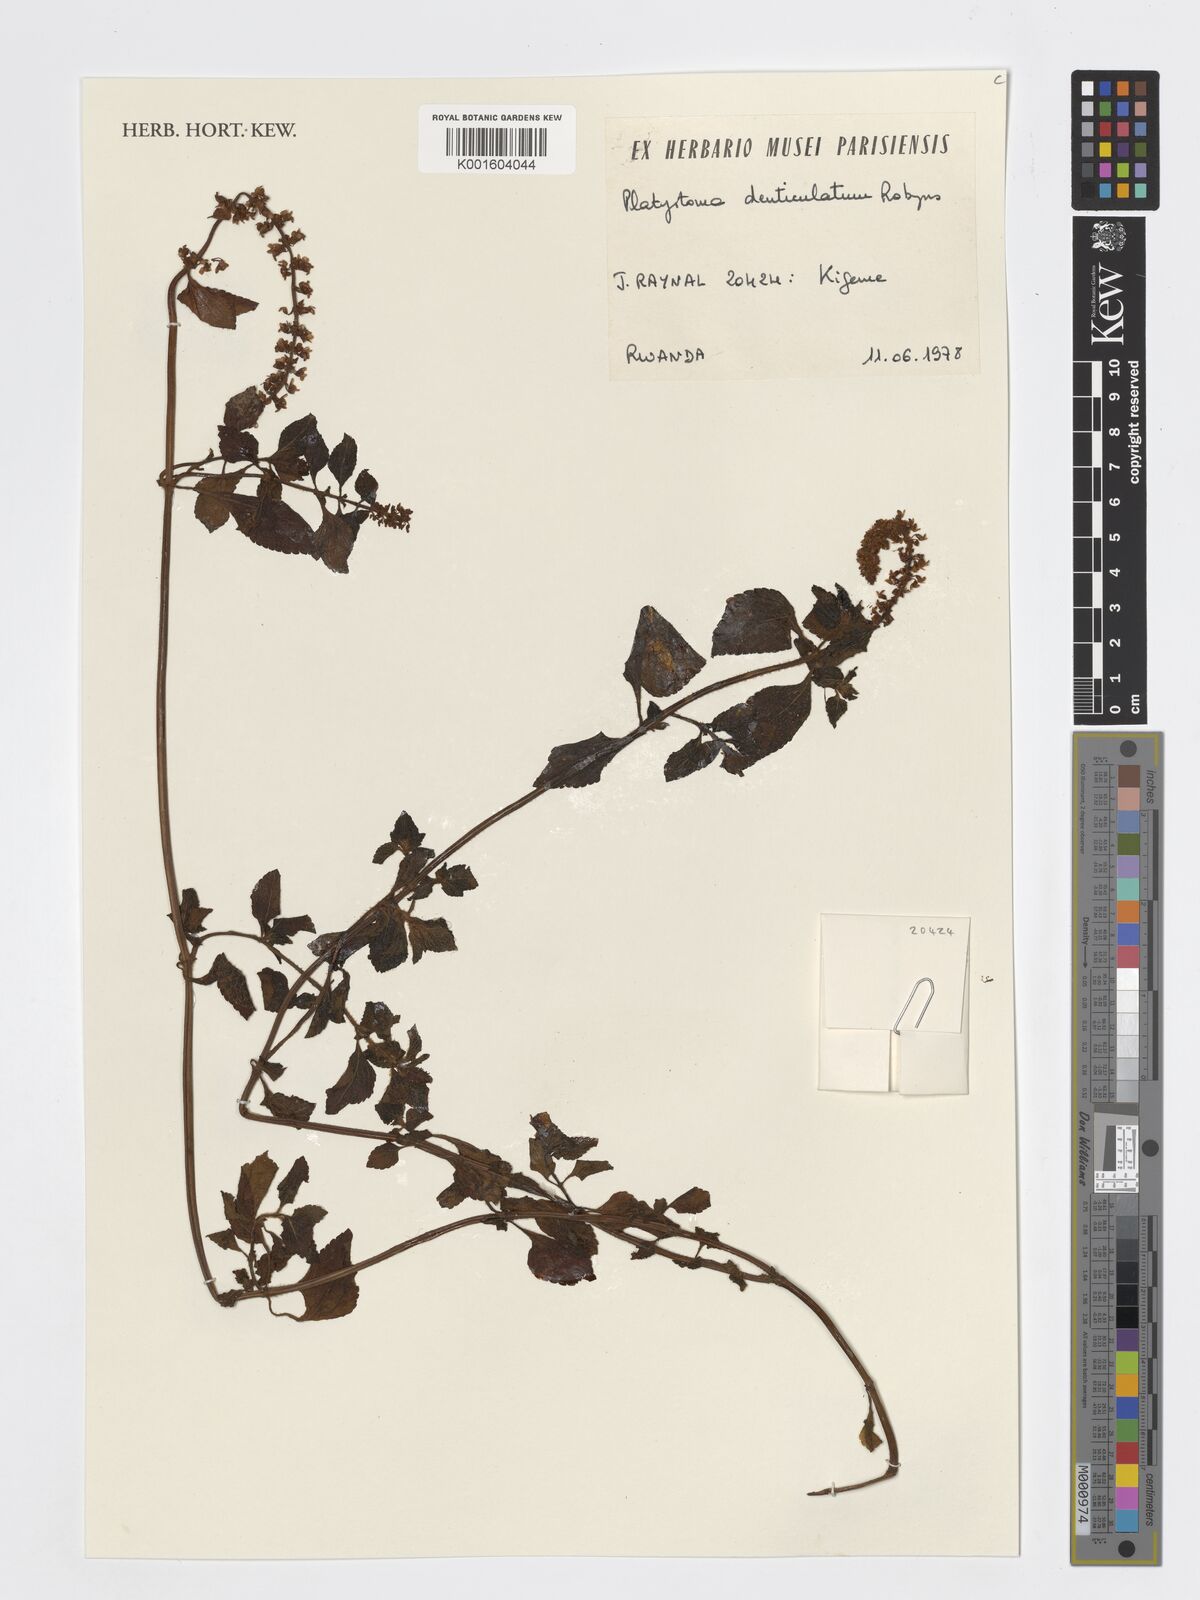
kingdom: Plantae
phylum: Tracheophyta
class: Magnoliopsida
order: Lamiales
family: Lamiaceae
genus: Platostoma
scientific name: Platostoma denticulatum
